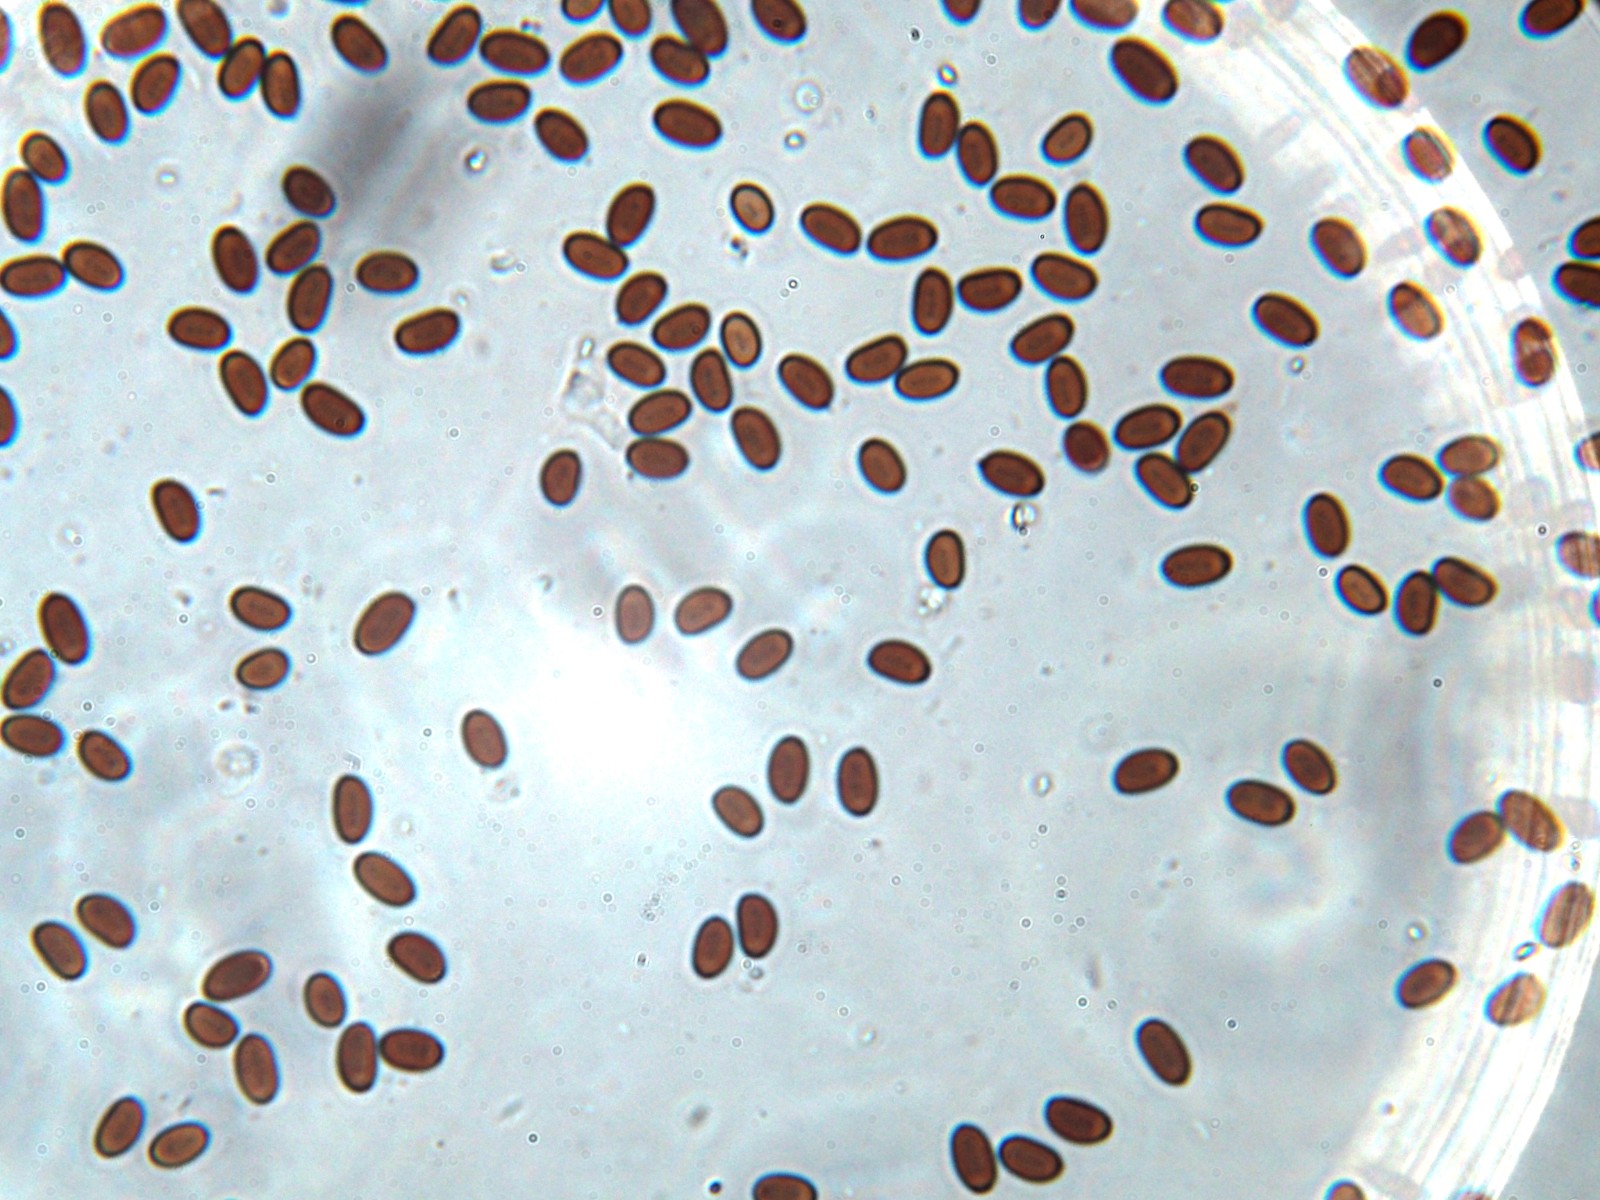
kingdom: Fungi
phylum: Basidiomycota
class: Agaricomycetes
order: Agaricales
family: Psathyrellaceae
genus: Coprinopsis
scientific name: Coprinopsis stercorea
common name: pjusket blækhat
